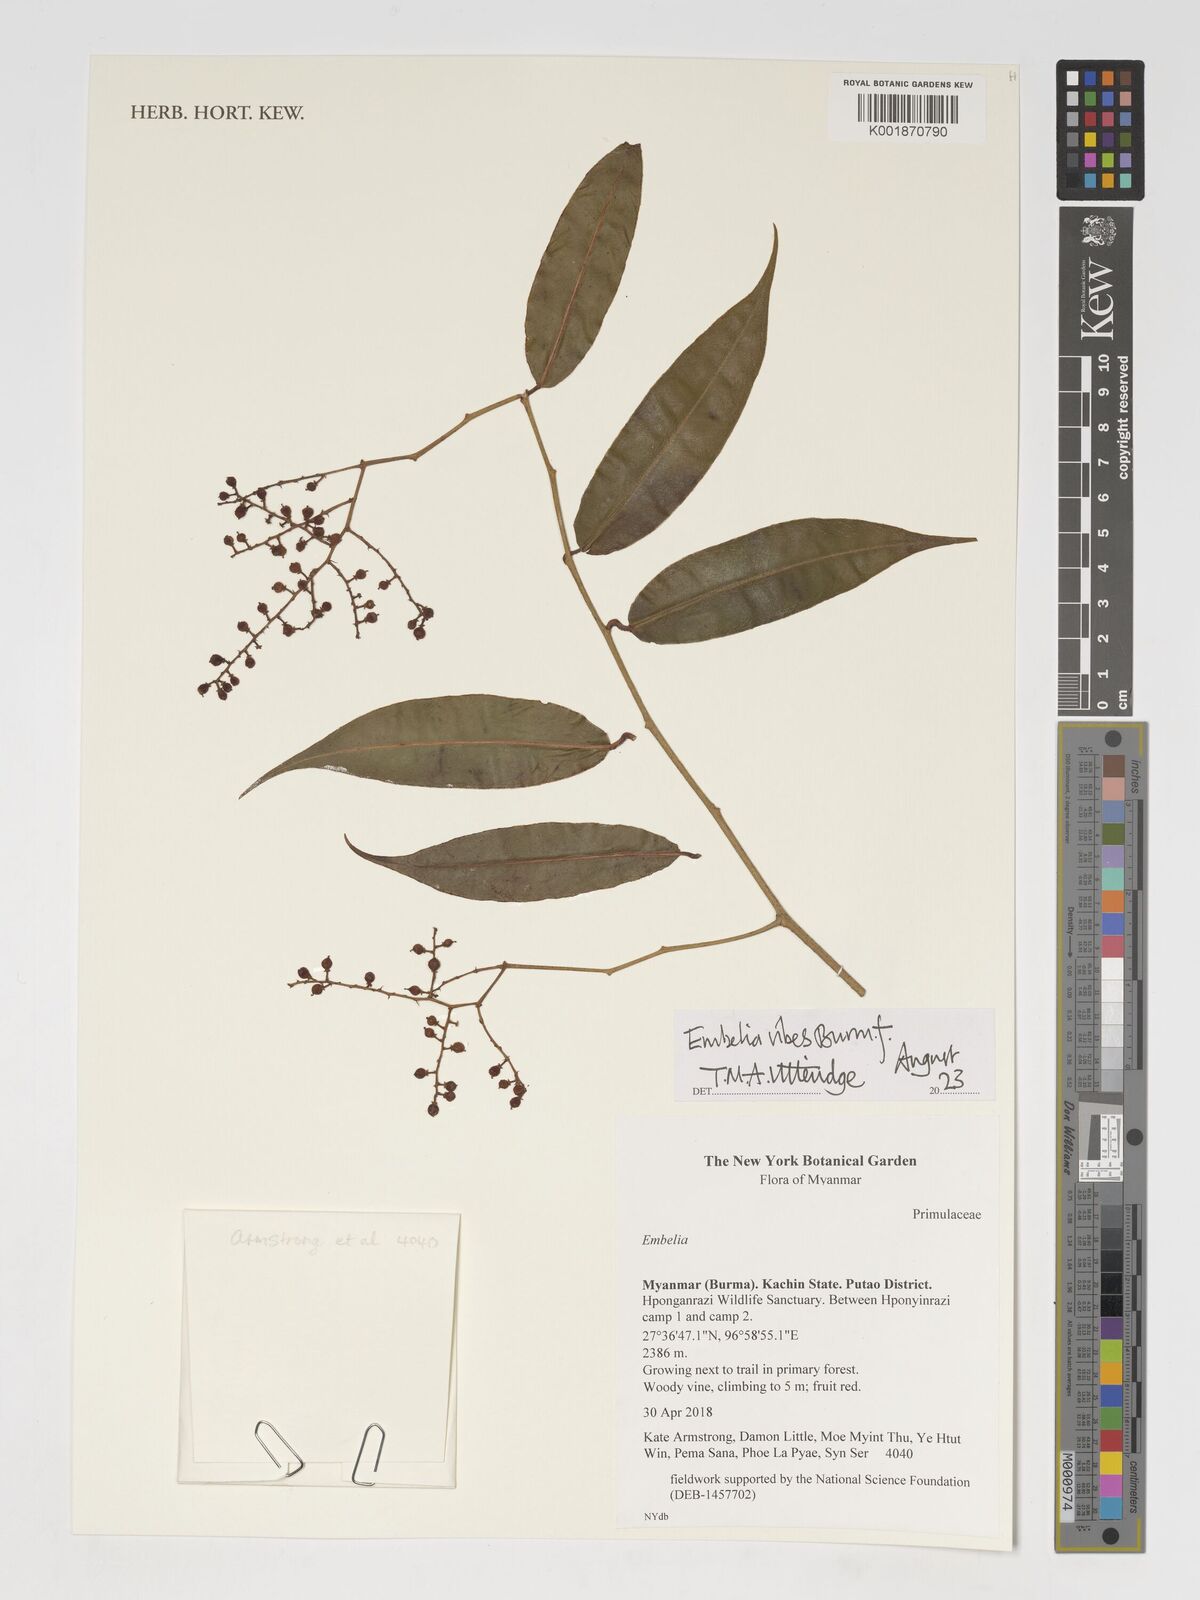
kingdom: Plantae
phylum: Tracheophyta
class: Magnoliopsida
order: Ericales
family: Primulaceae
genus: Embelia
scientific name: Embelia ribes
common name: Vidanga
